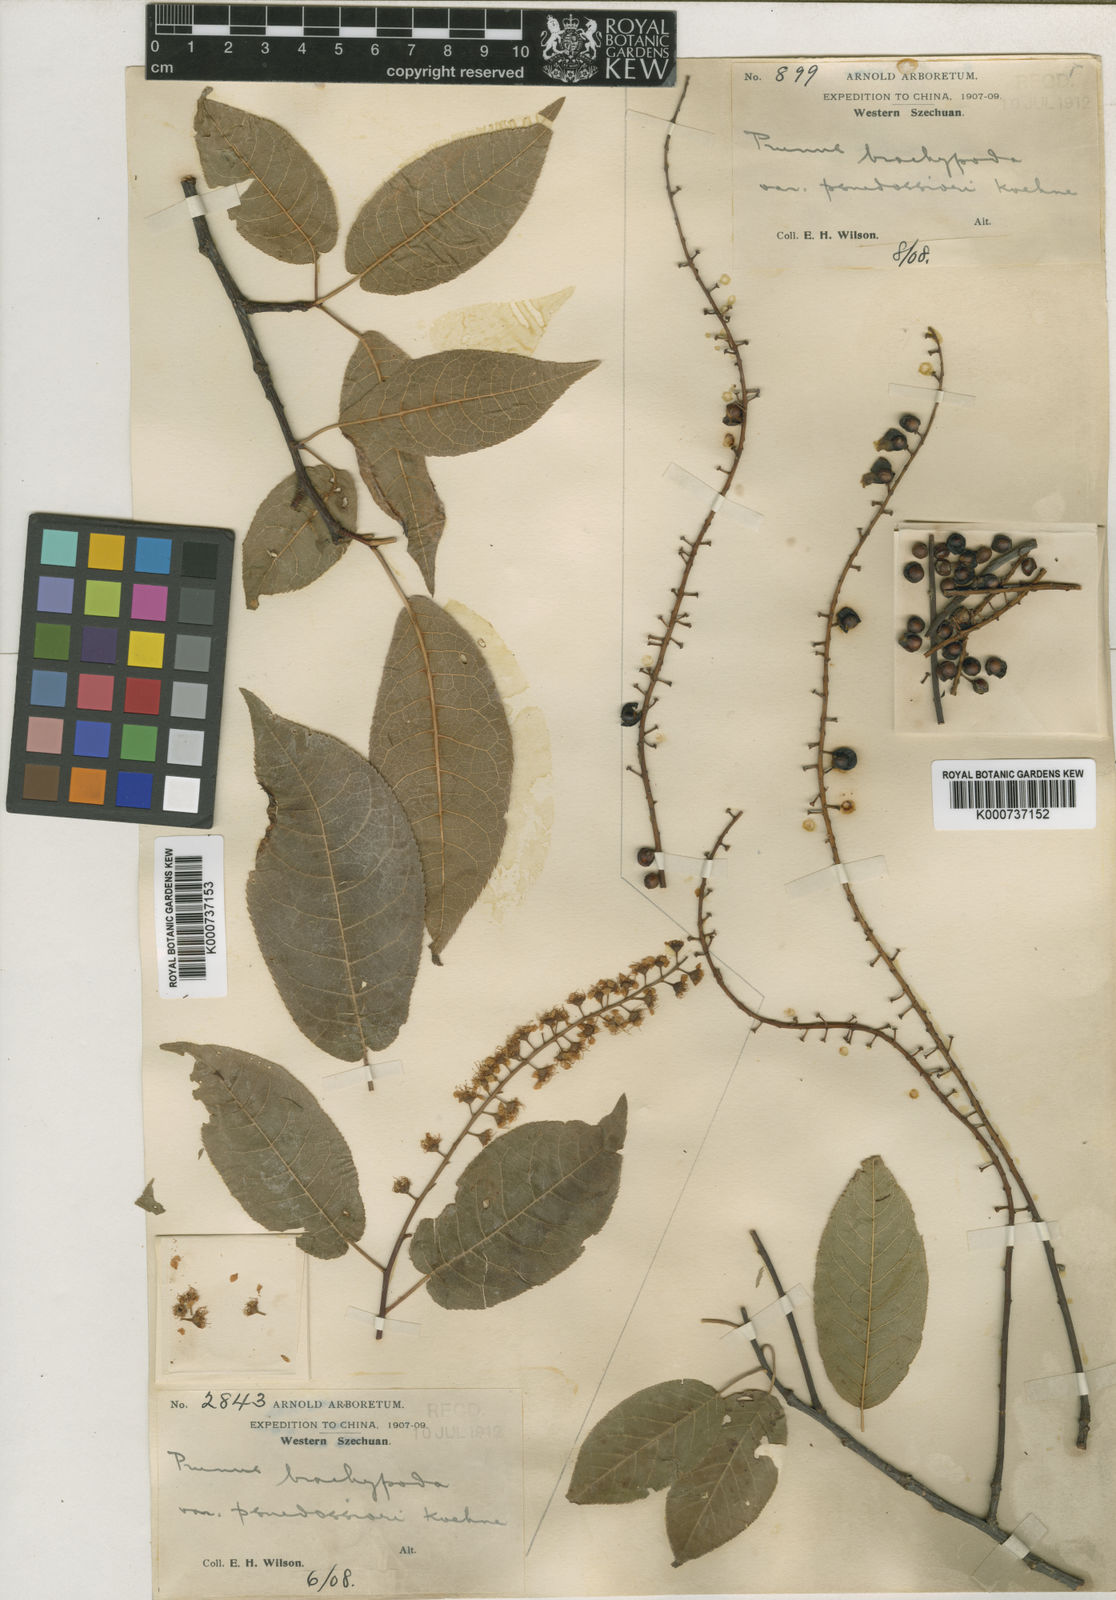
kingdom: Plantae
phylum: Tracheophyta
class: Magnoliopsida
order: Rosales
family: Rosaceae
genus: Prunus
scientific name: Prunus brachypoda
